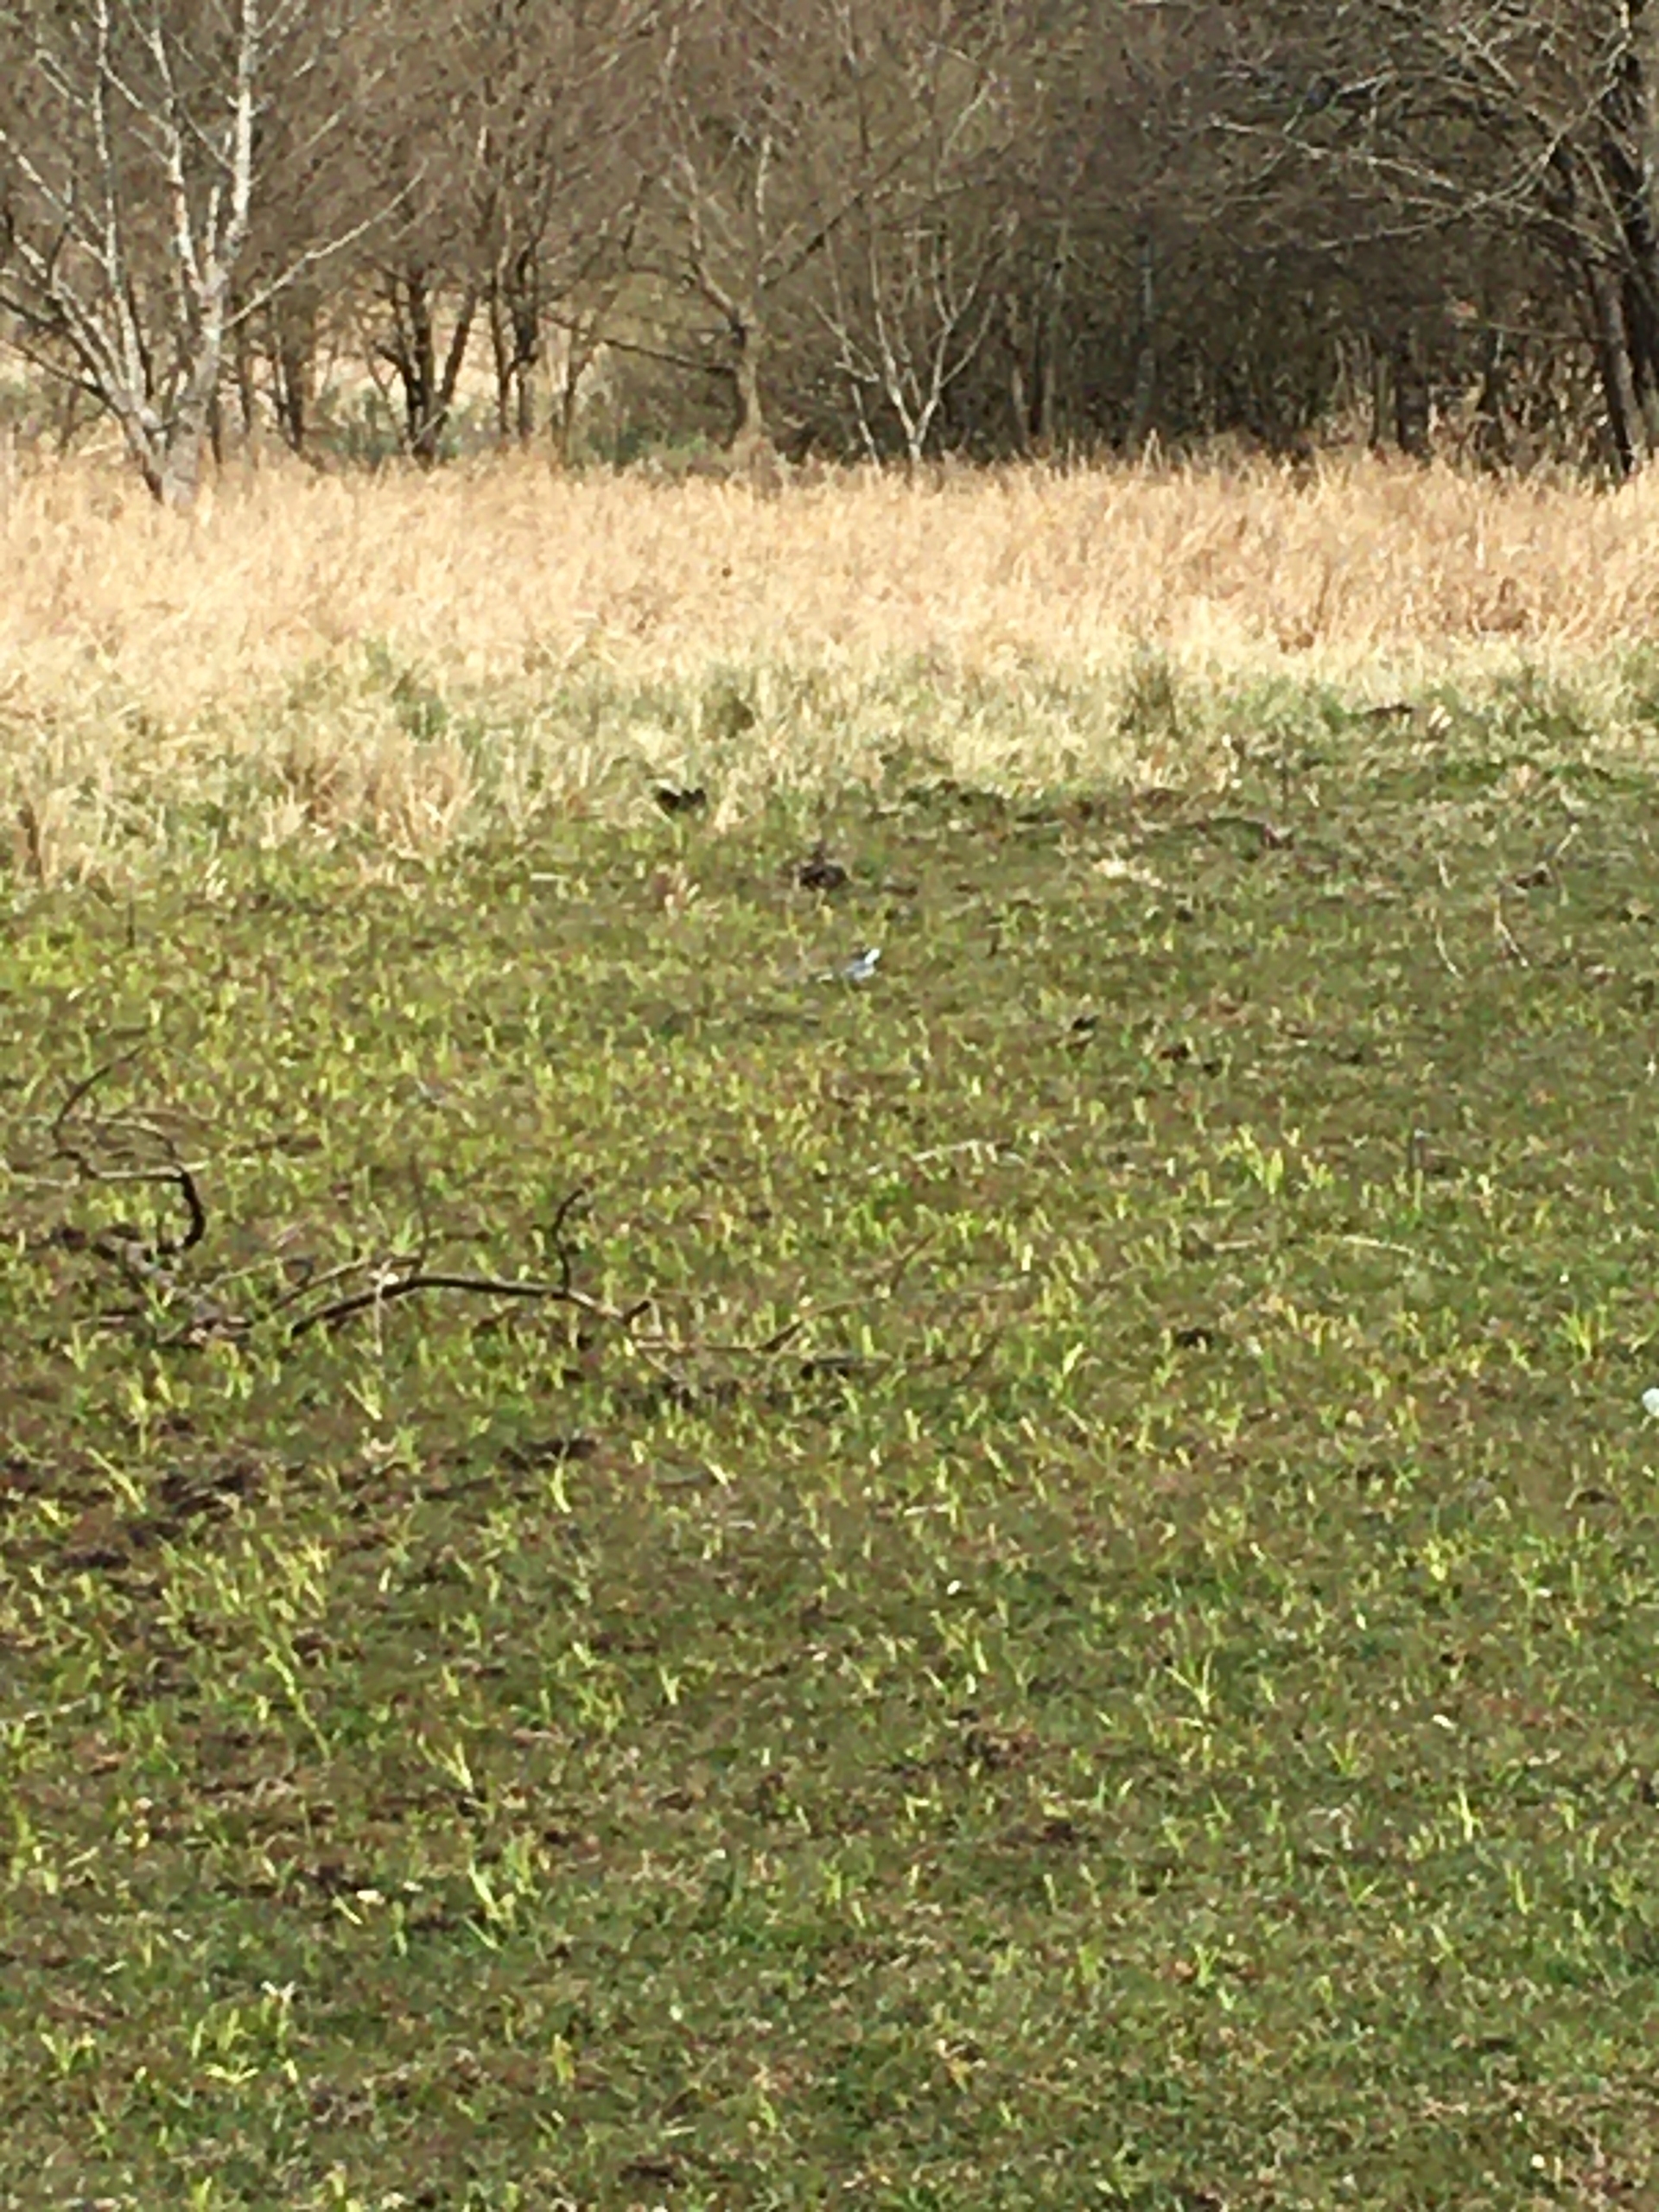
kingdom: Animalia
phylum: Chordata
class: Aves
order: Passeriformes
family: Motacillidae
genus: Motacilla
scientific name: Motacilla alba
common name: Hvid vipstjert
